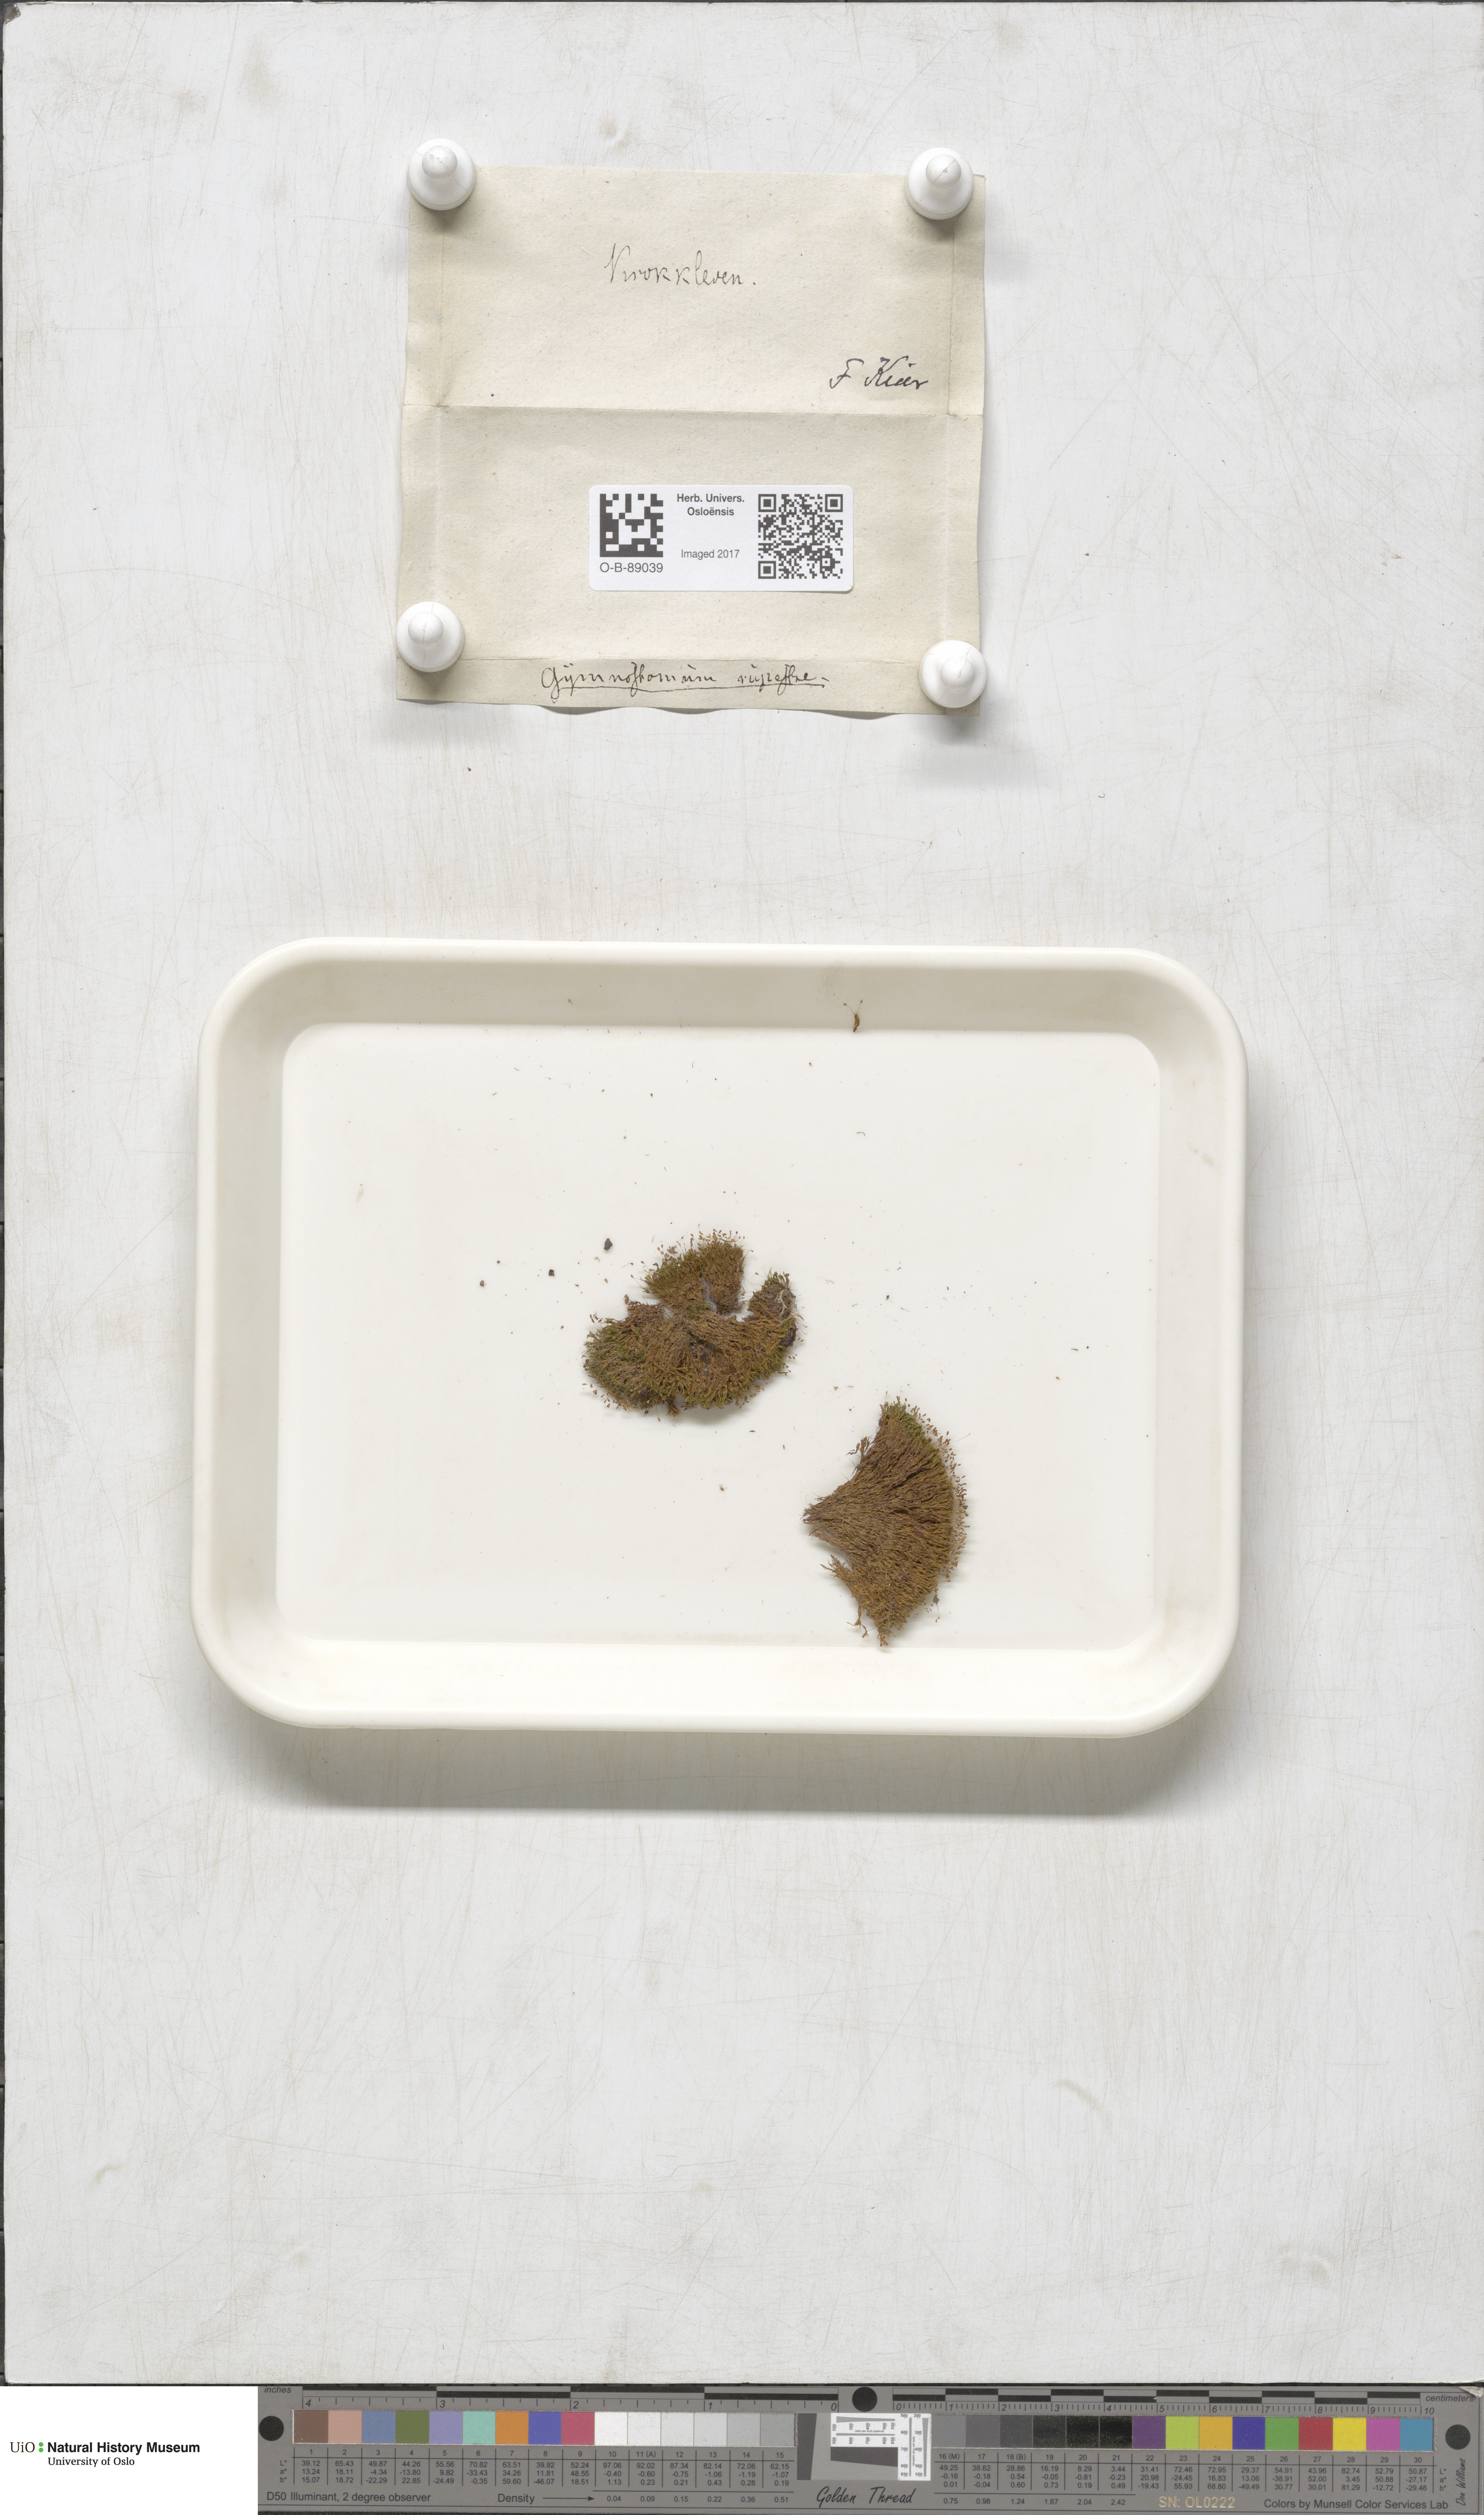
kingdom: Plantae
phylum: Bryophyta
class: Bryopsida
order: Pottiales
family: Pottiaceae
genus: Gymnostomum
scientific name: Gymnostomum aeruginosum
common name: Verdigris tufa-moss
